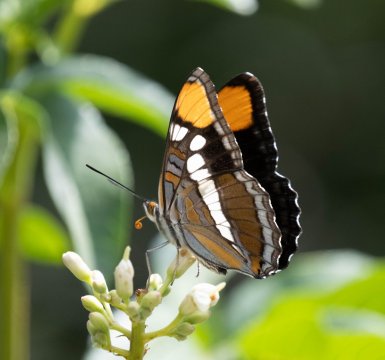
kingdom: Animalia
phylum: Arthropoda
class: Insecta
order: Lepidoptera
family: Nymphalidae
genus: Limenitis
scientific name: Limenitis bredowii
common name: California Sister
